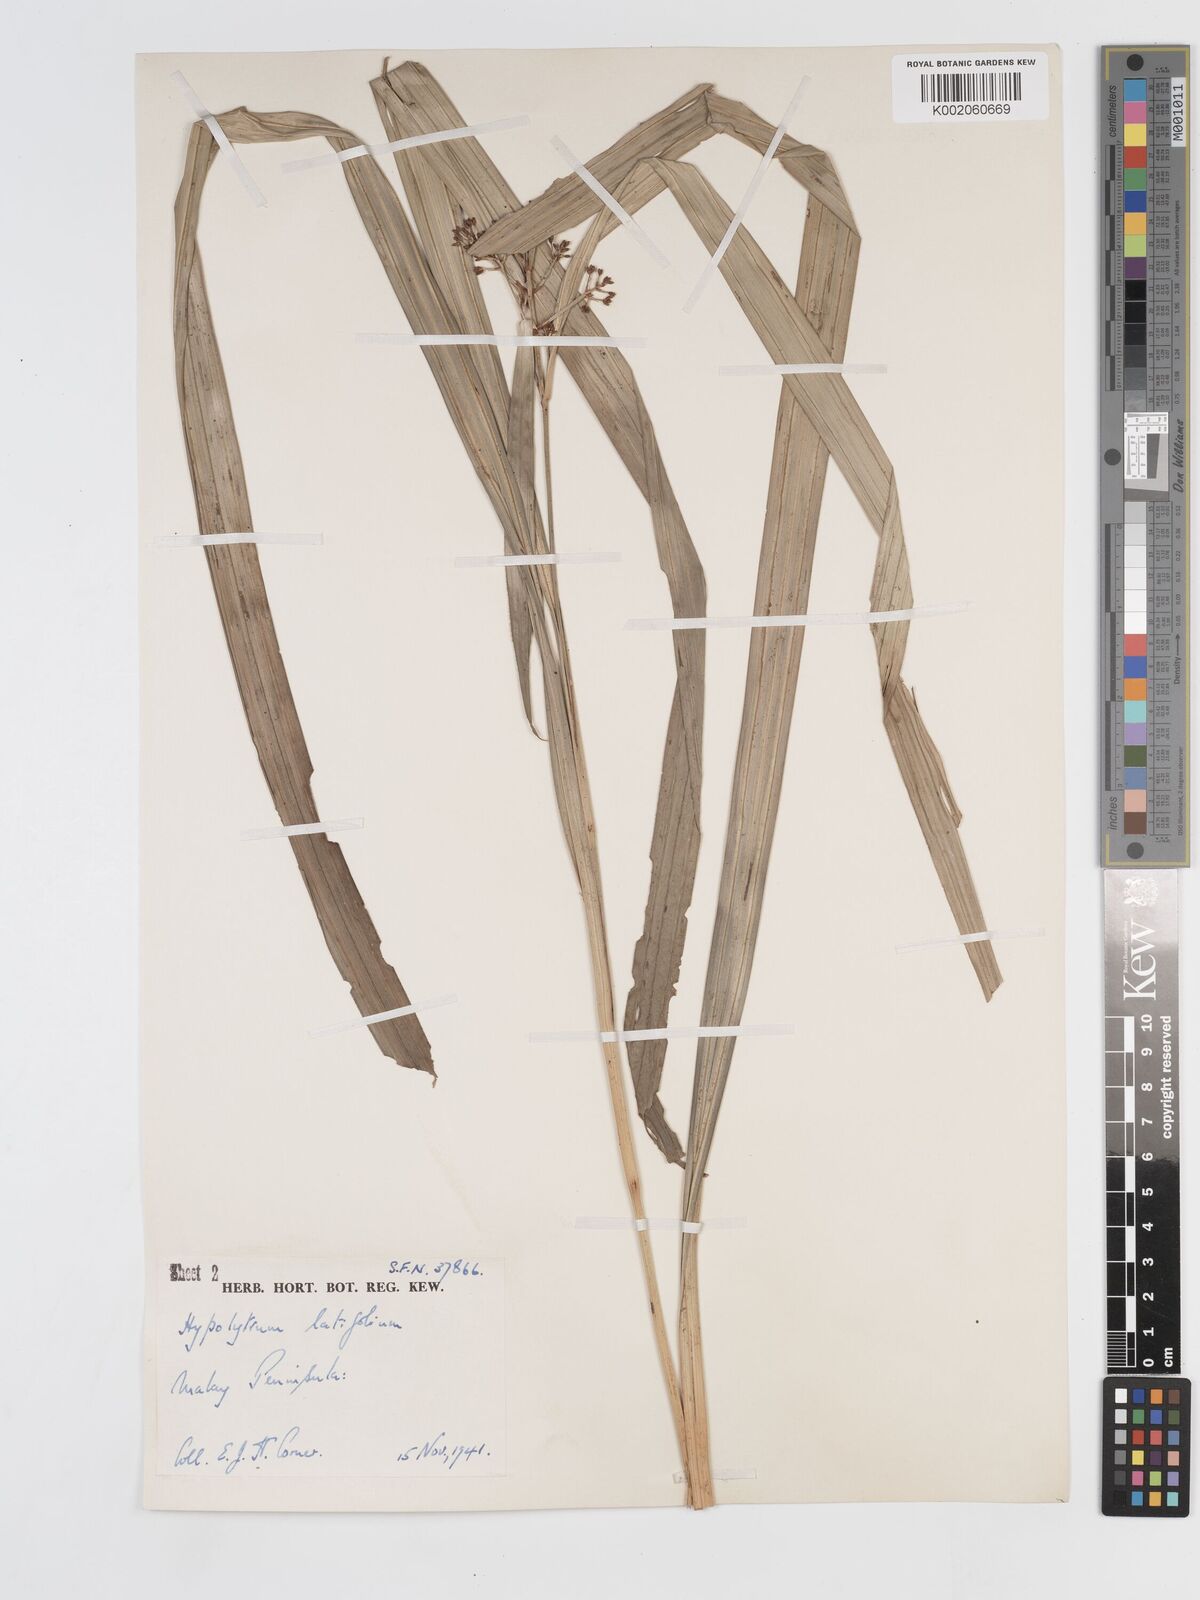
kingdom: Plantae
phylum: Tracheophyta
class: Liliopsida
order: Poales
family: Cyperaceae
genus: Hypolytrum
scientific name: Hypolytrum nemorum
